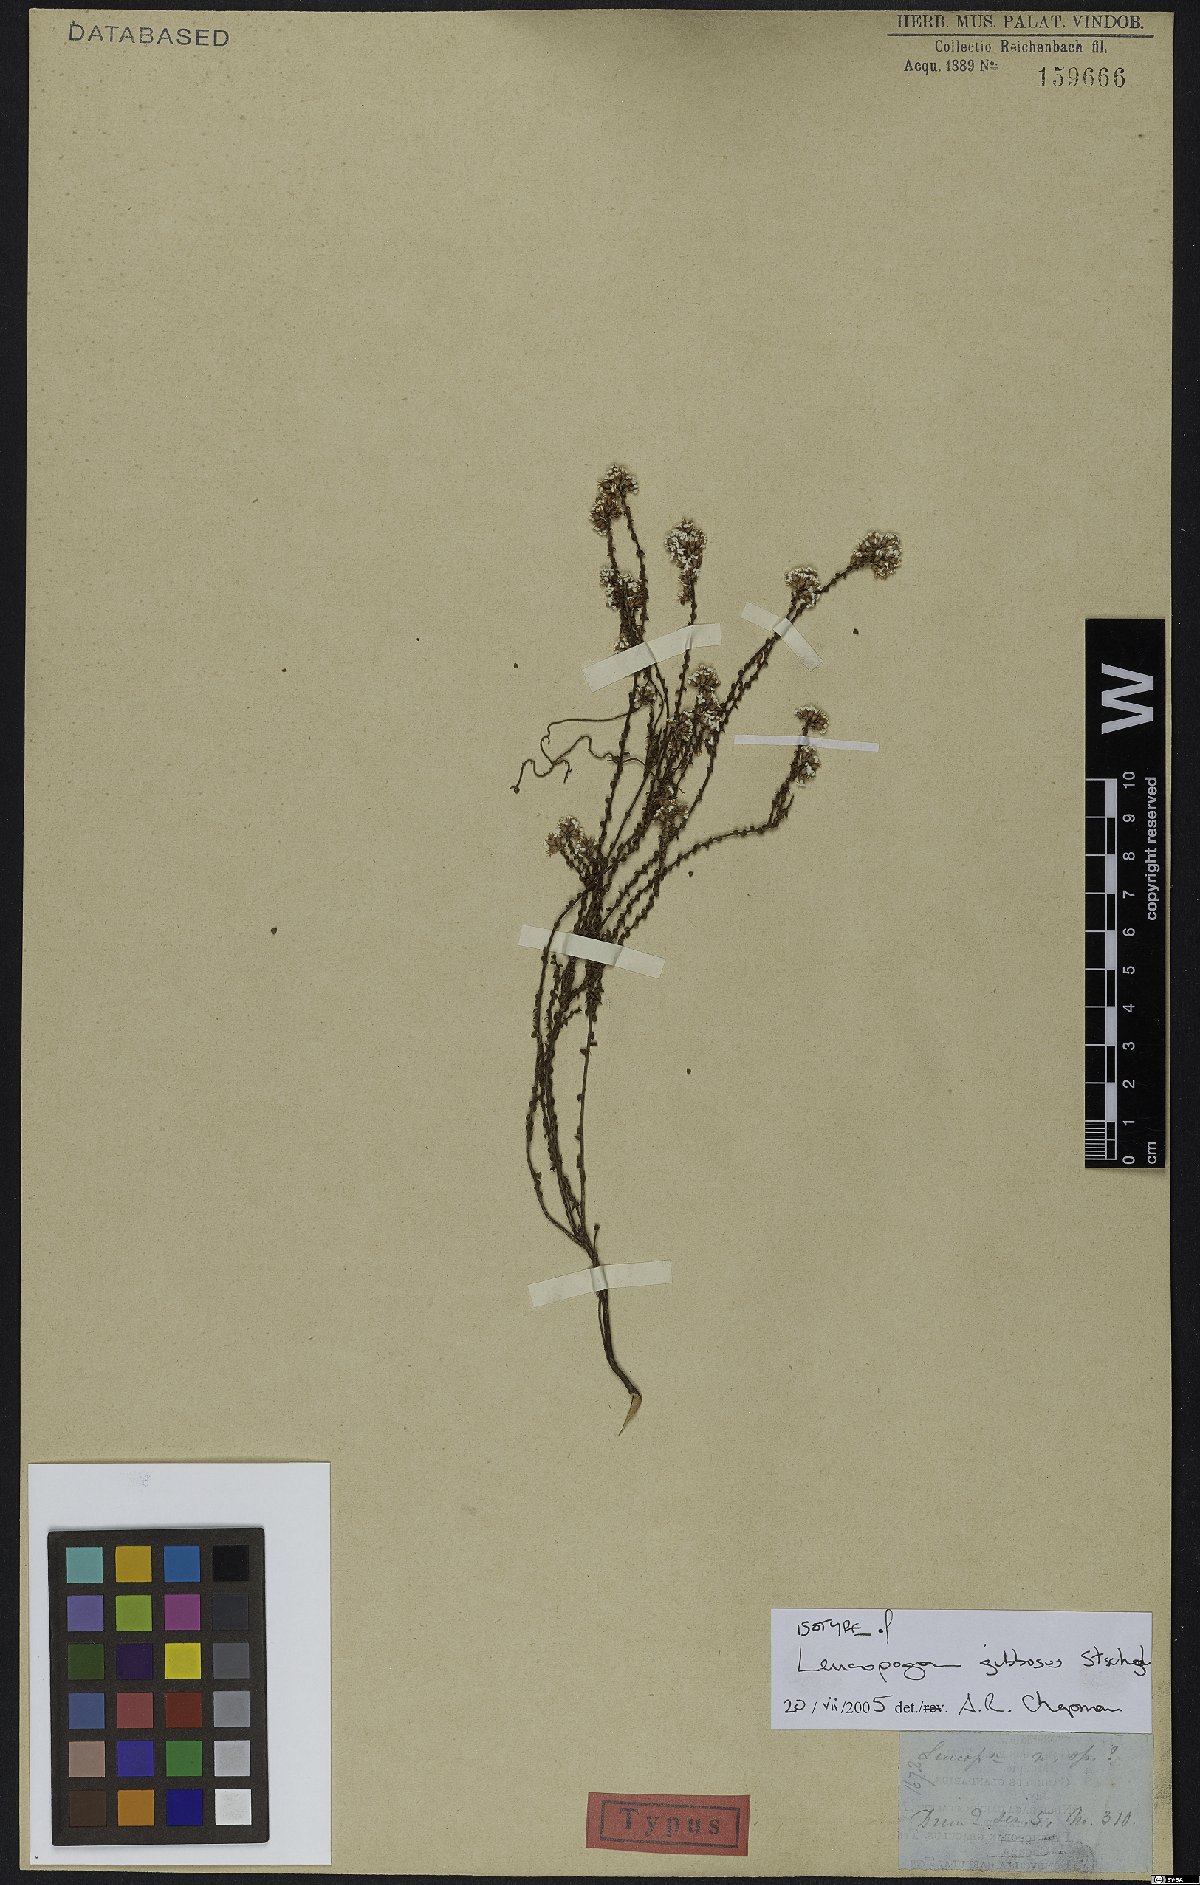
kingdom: Plantae
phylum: Tracheophyta
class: Magnoliopsida
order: Ericales
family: Ericaceae
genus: Leucopogon
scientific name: Leucopogon gibbosus
